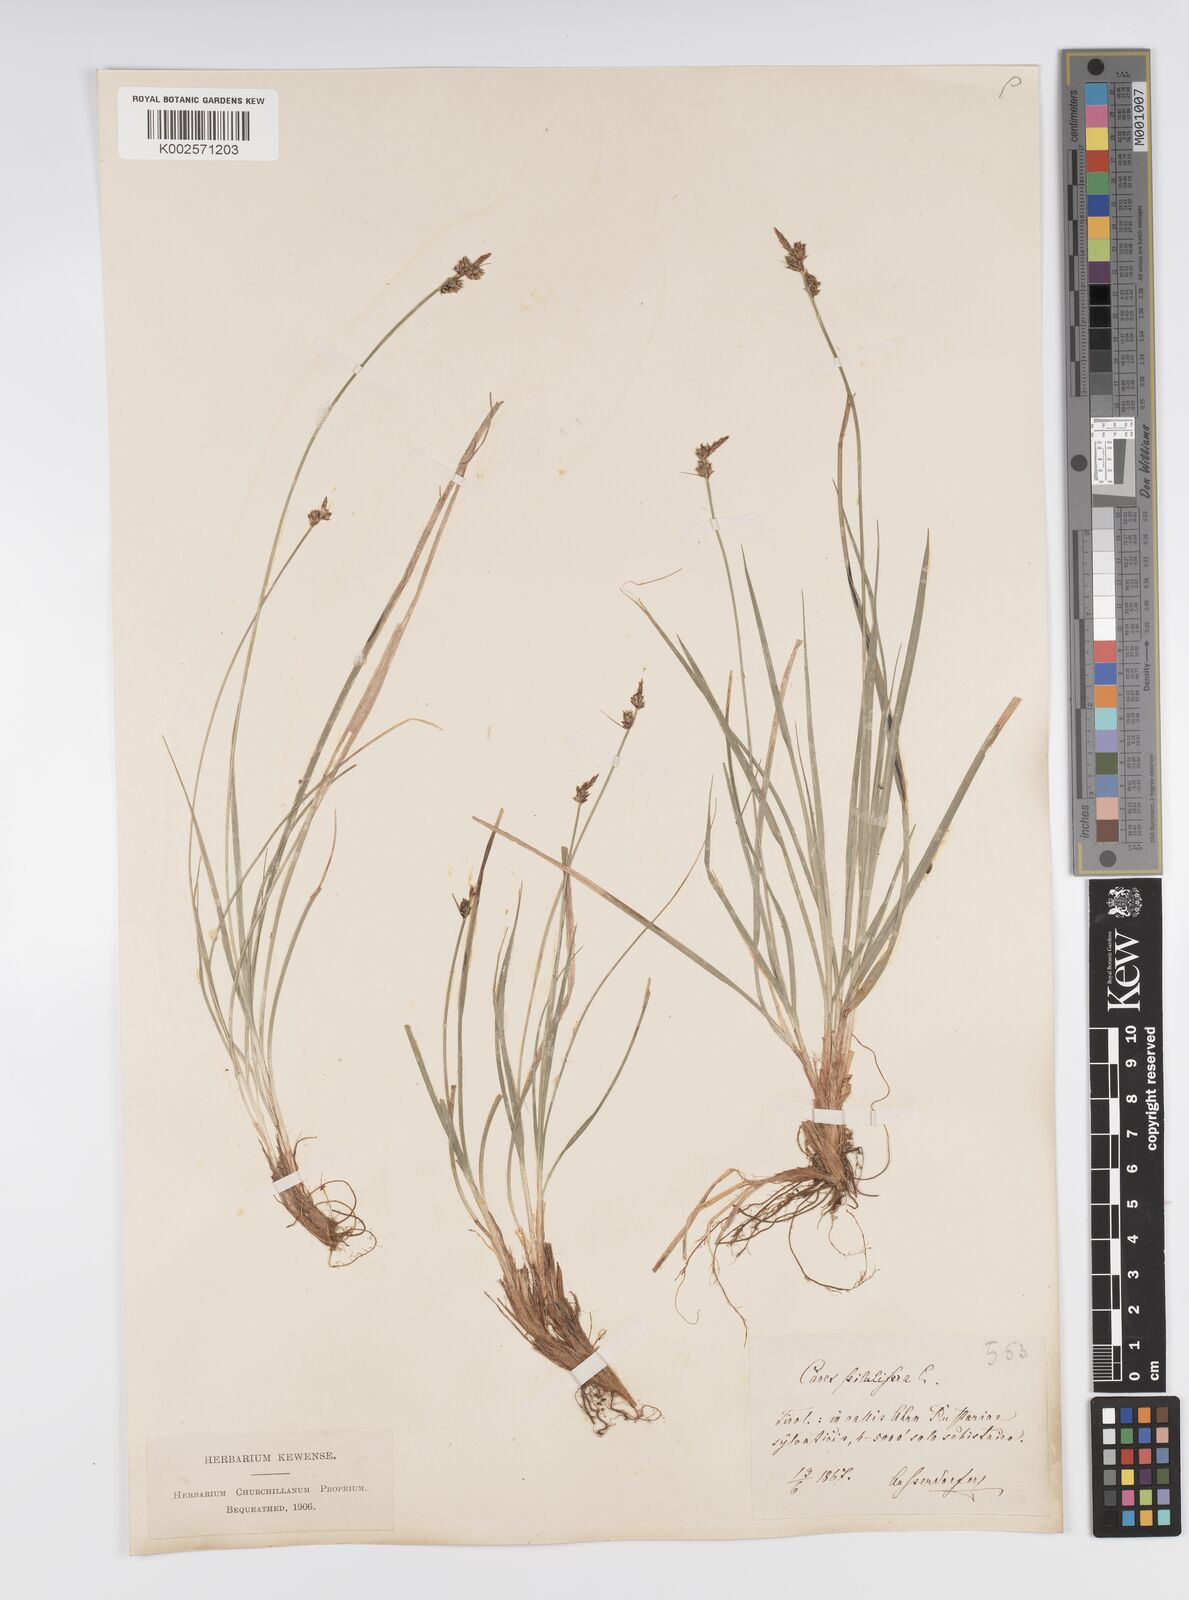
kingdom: Plantae
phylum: Tracheophyta
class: Liliopsida
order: Poales
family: Cyperaceae
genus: Carex
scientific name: Carex pilulifera
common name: Pill sedge
